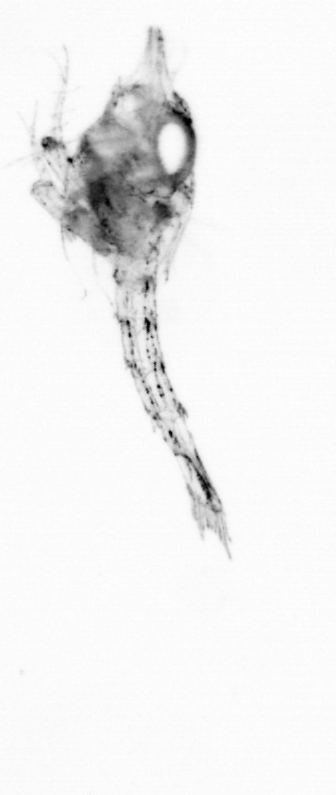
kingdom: Animalia
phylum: Arthropoda
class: Maxillopoda
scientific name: Maxillopoda
